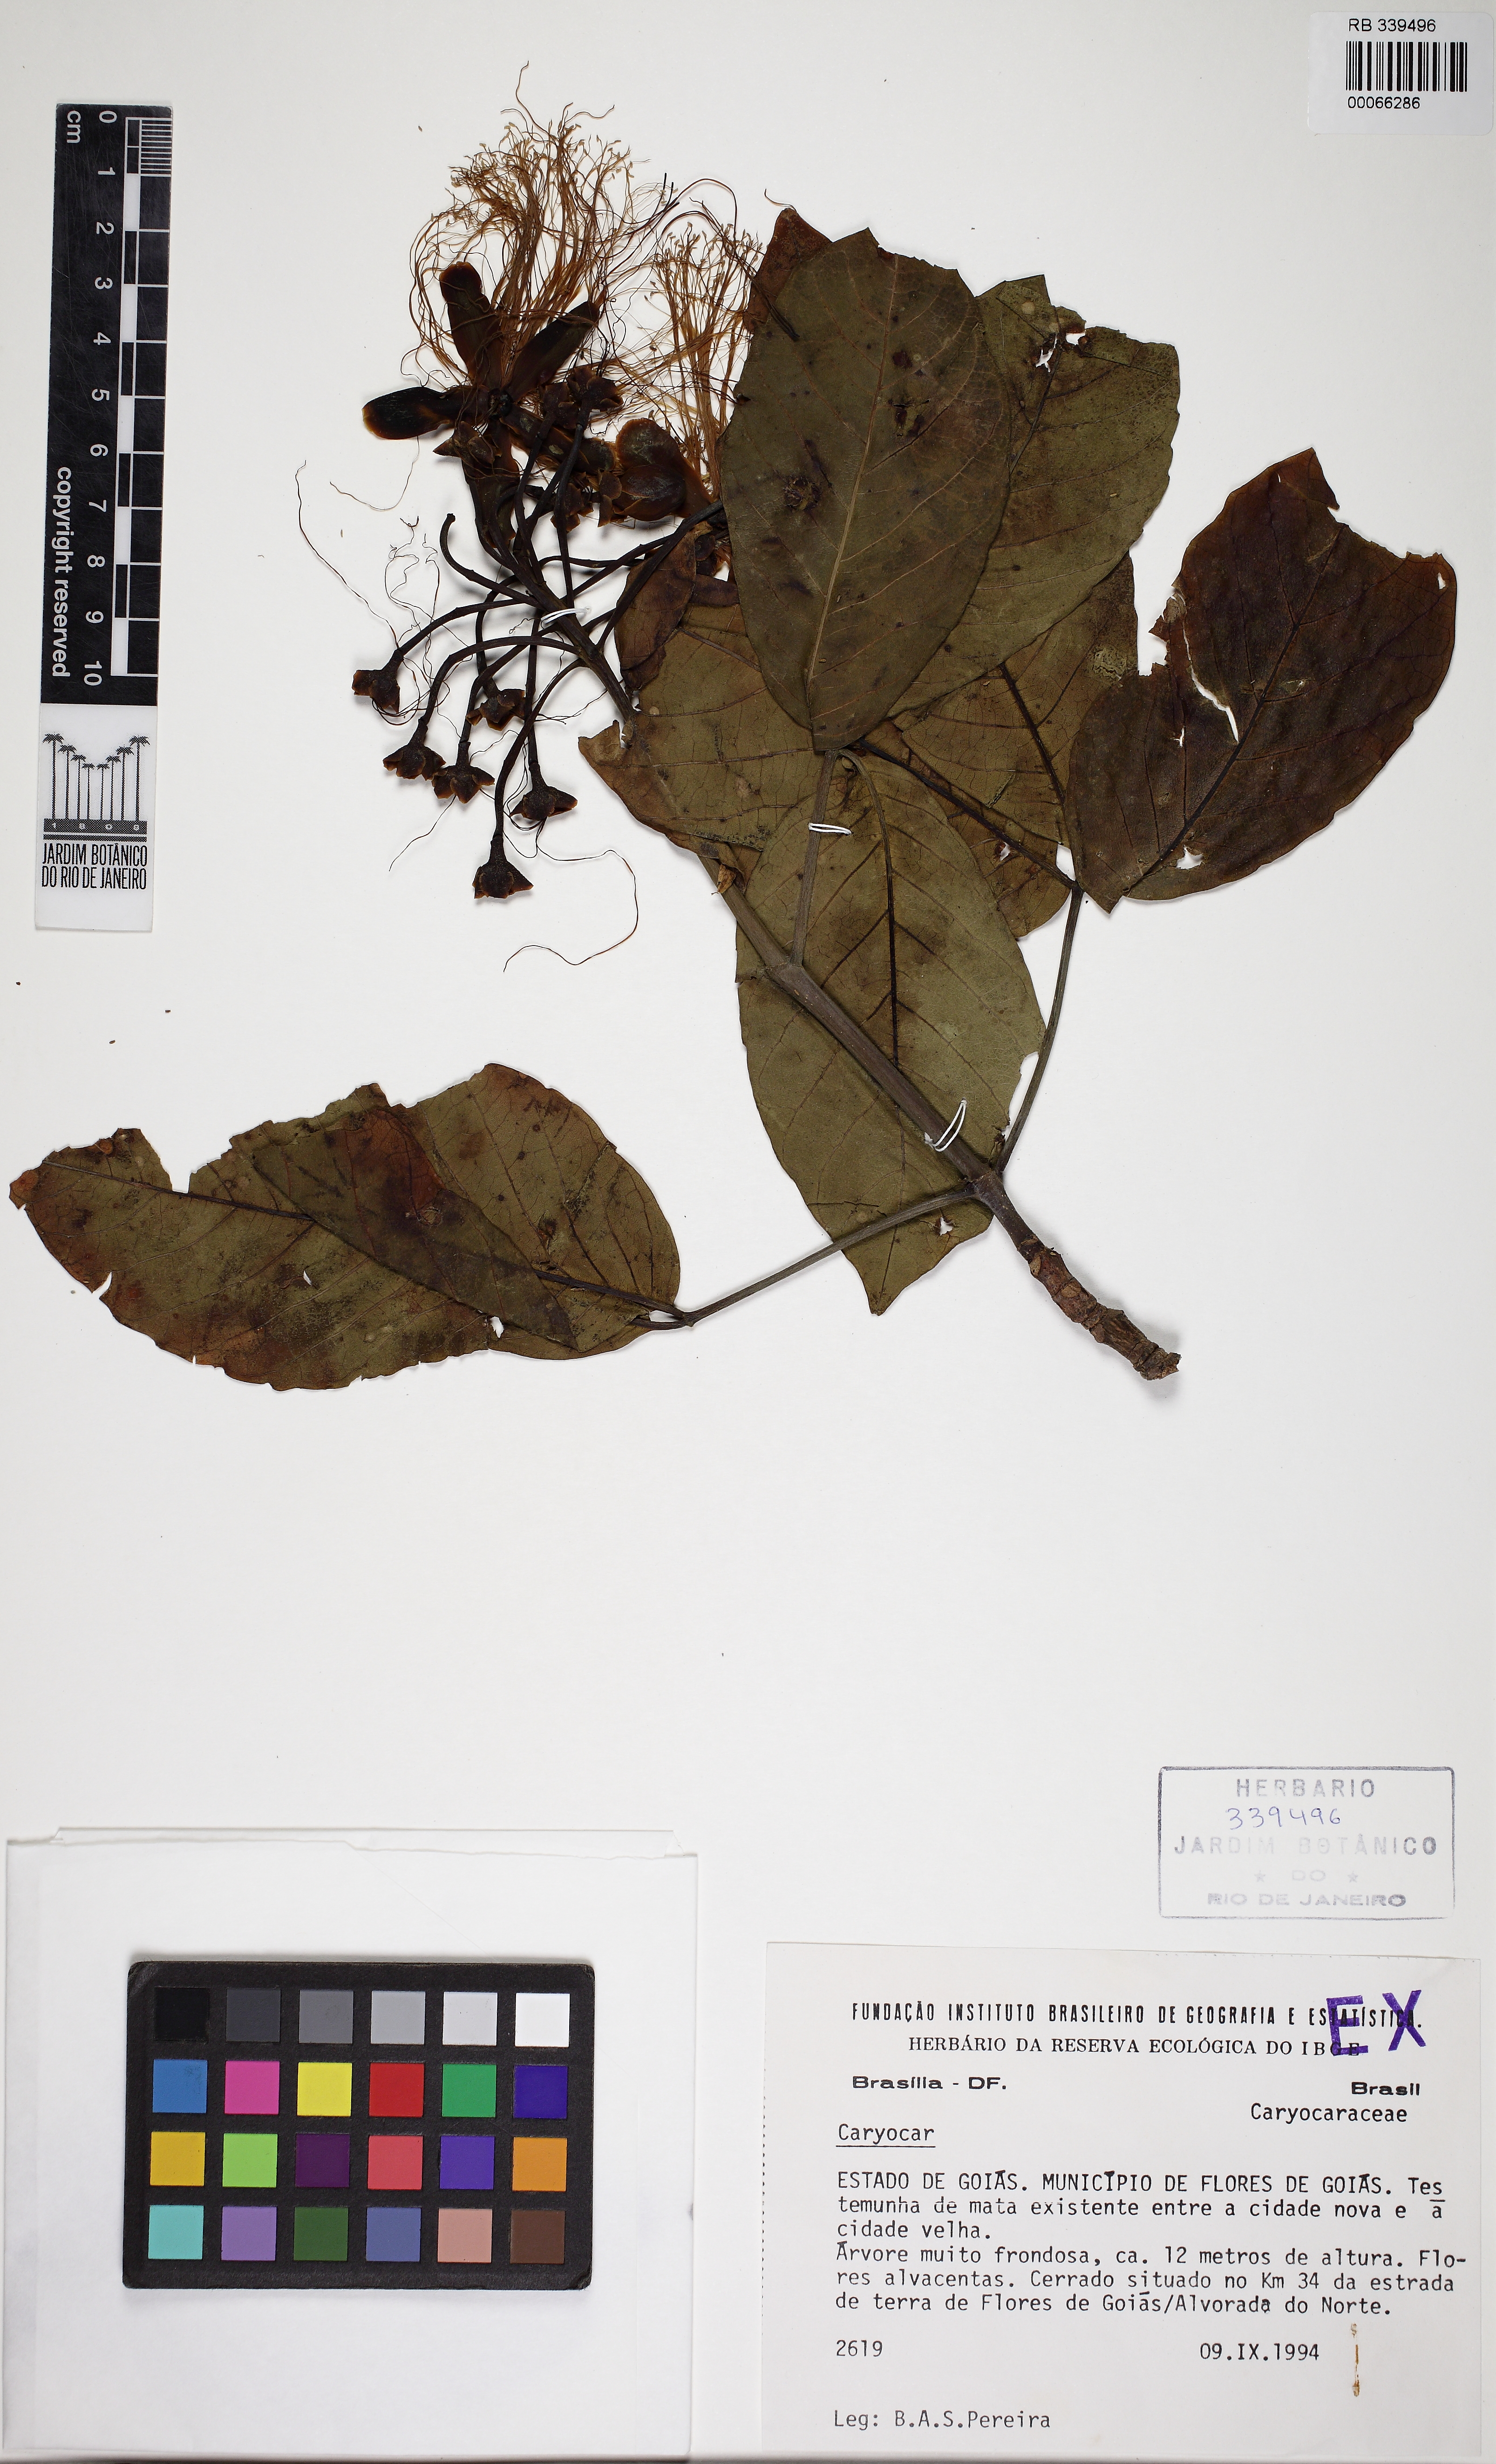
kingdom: Plantae
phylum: Tracheophyta
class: Magnoliopsida
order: Malpighiales
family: Caryocaraceae
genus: Caryocar
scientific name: Caryocar
